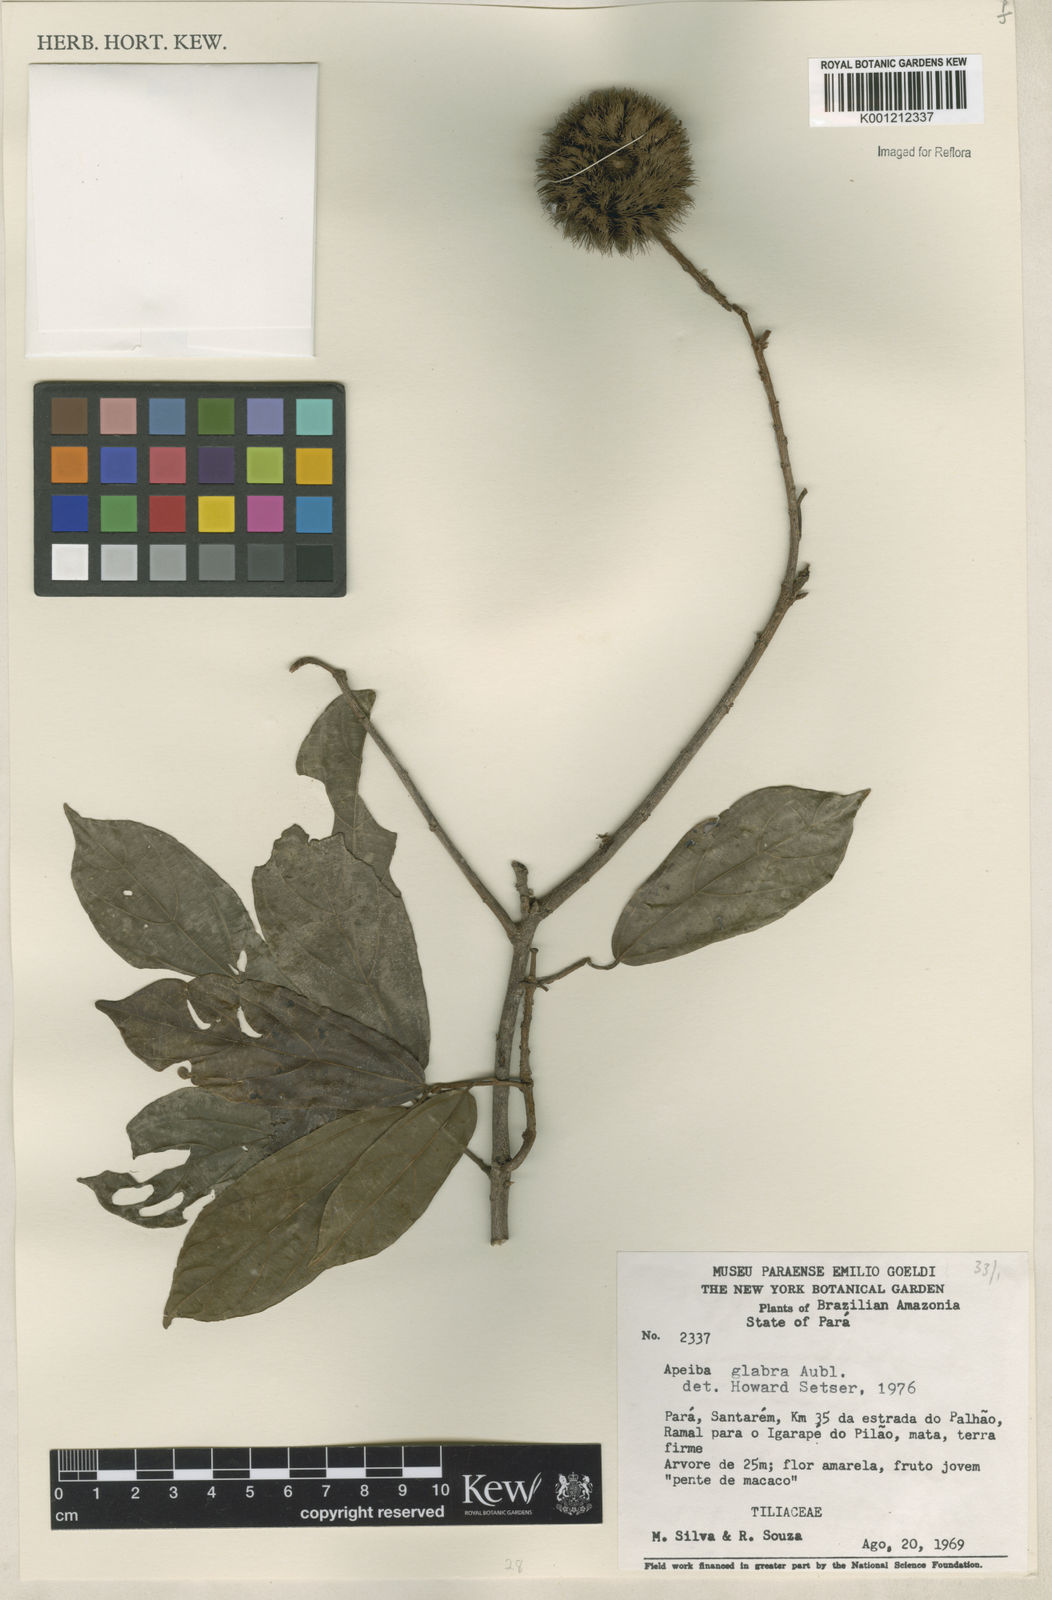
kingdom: Plantae
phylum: Tracheophyta
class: Magnoliopsida
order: Malvales
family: Malvaceae
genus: Apeiba
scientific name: Apeiba glabra
